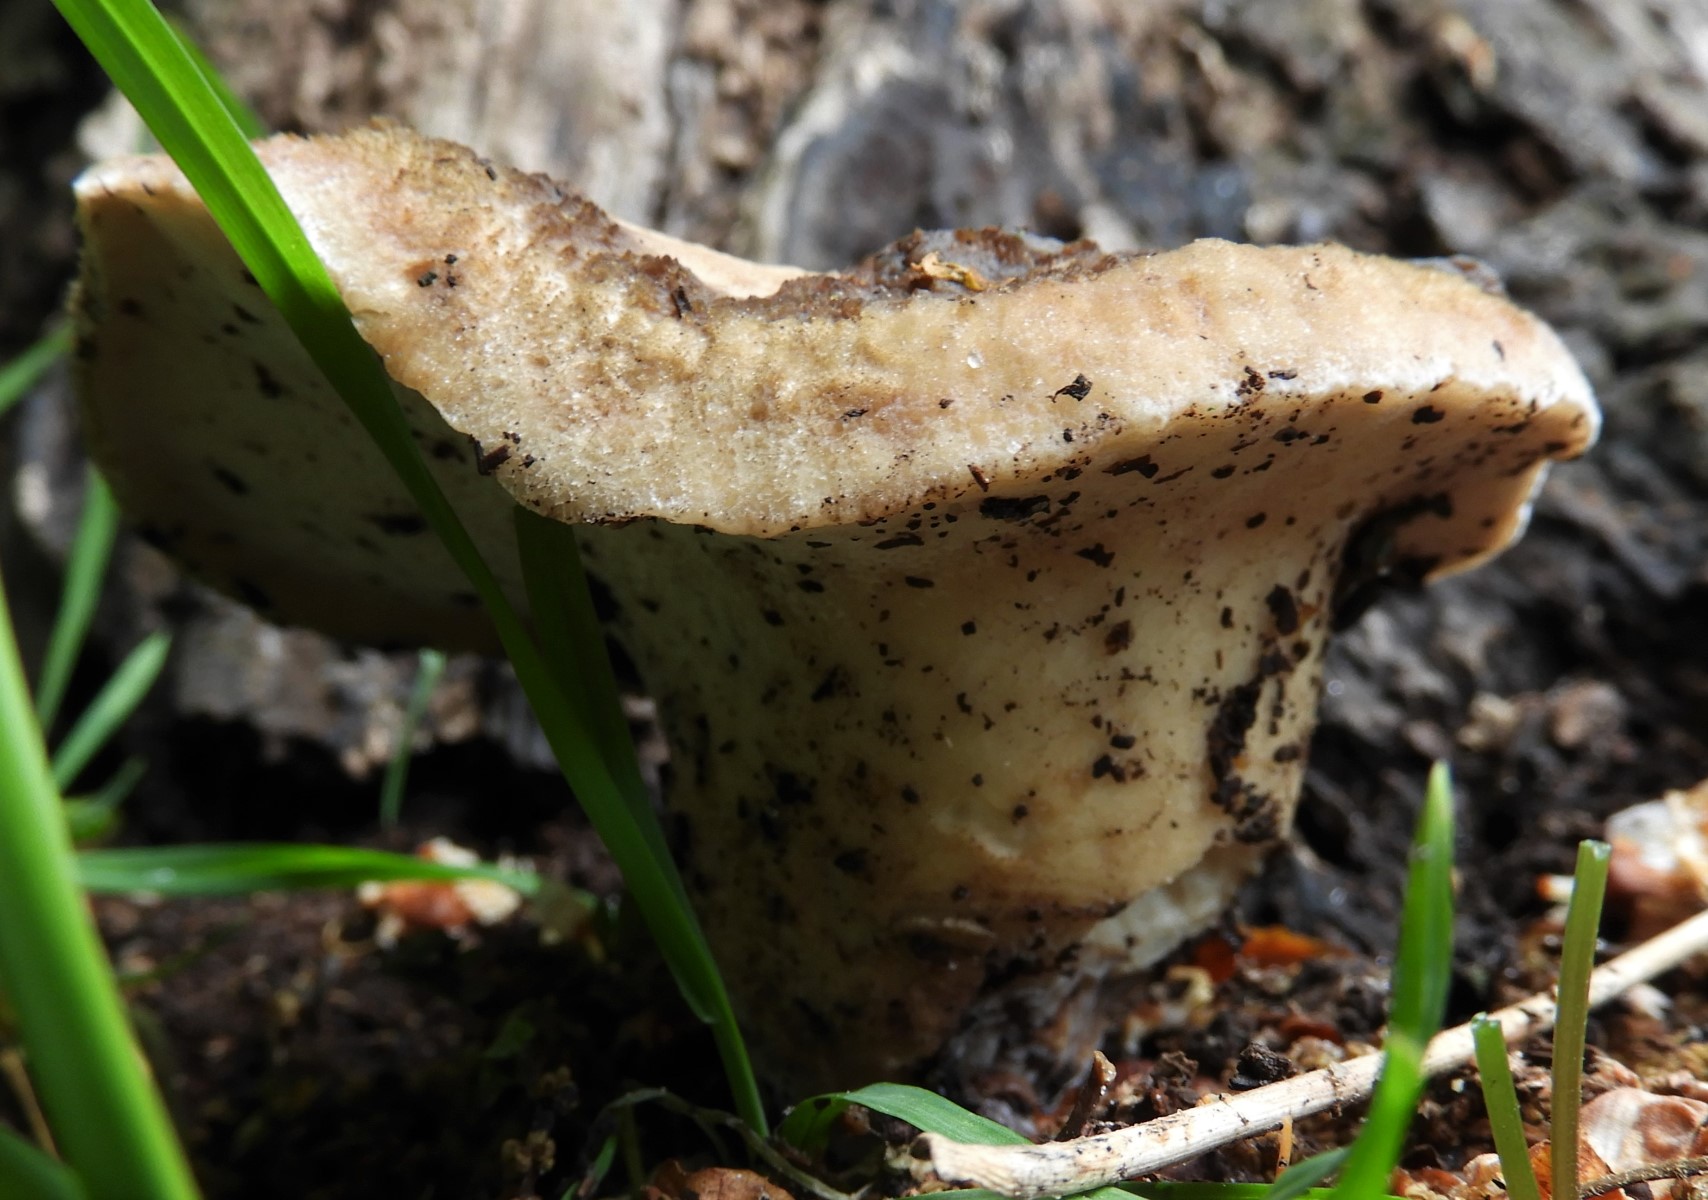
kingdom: Fungi
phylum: Basidiomycota
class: Agaricomycetes
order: Polyporales
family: Polyporaceae
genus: Polyporus
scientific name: Polyporus tuberaster
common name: knoldet stilkporesvamp
